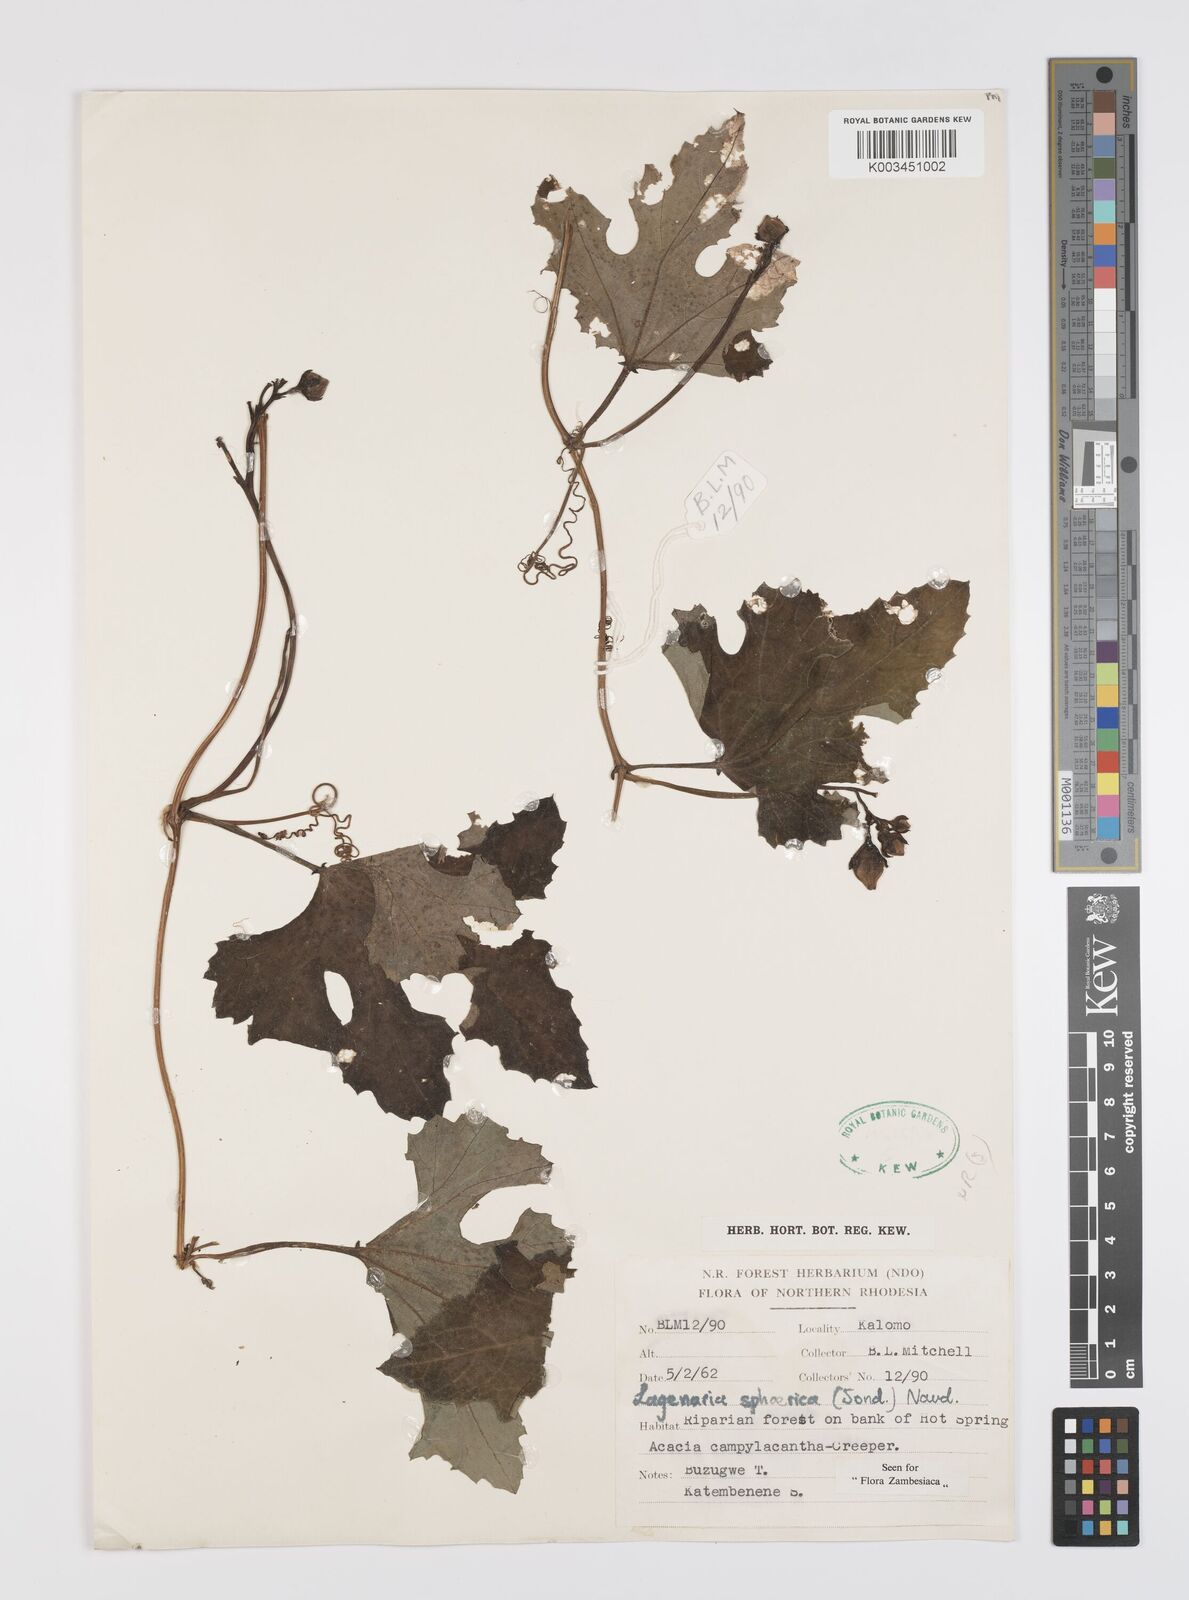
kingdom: Plantae
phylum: Tracheophyta
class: Magnoliopsida
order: Cucurbitales
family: Cucurbitaceae
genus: Lagenaria
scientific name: Lagenaria sphaerica
